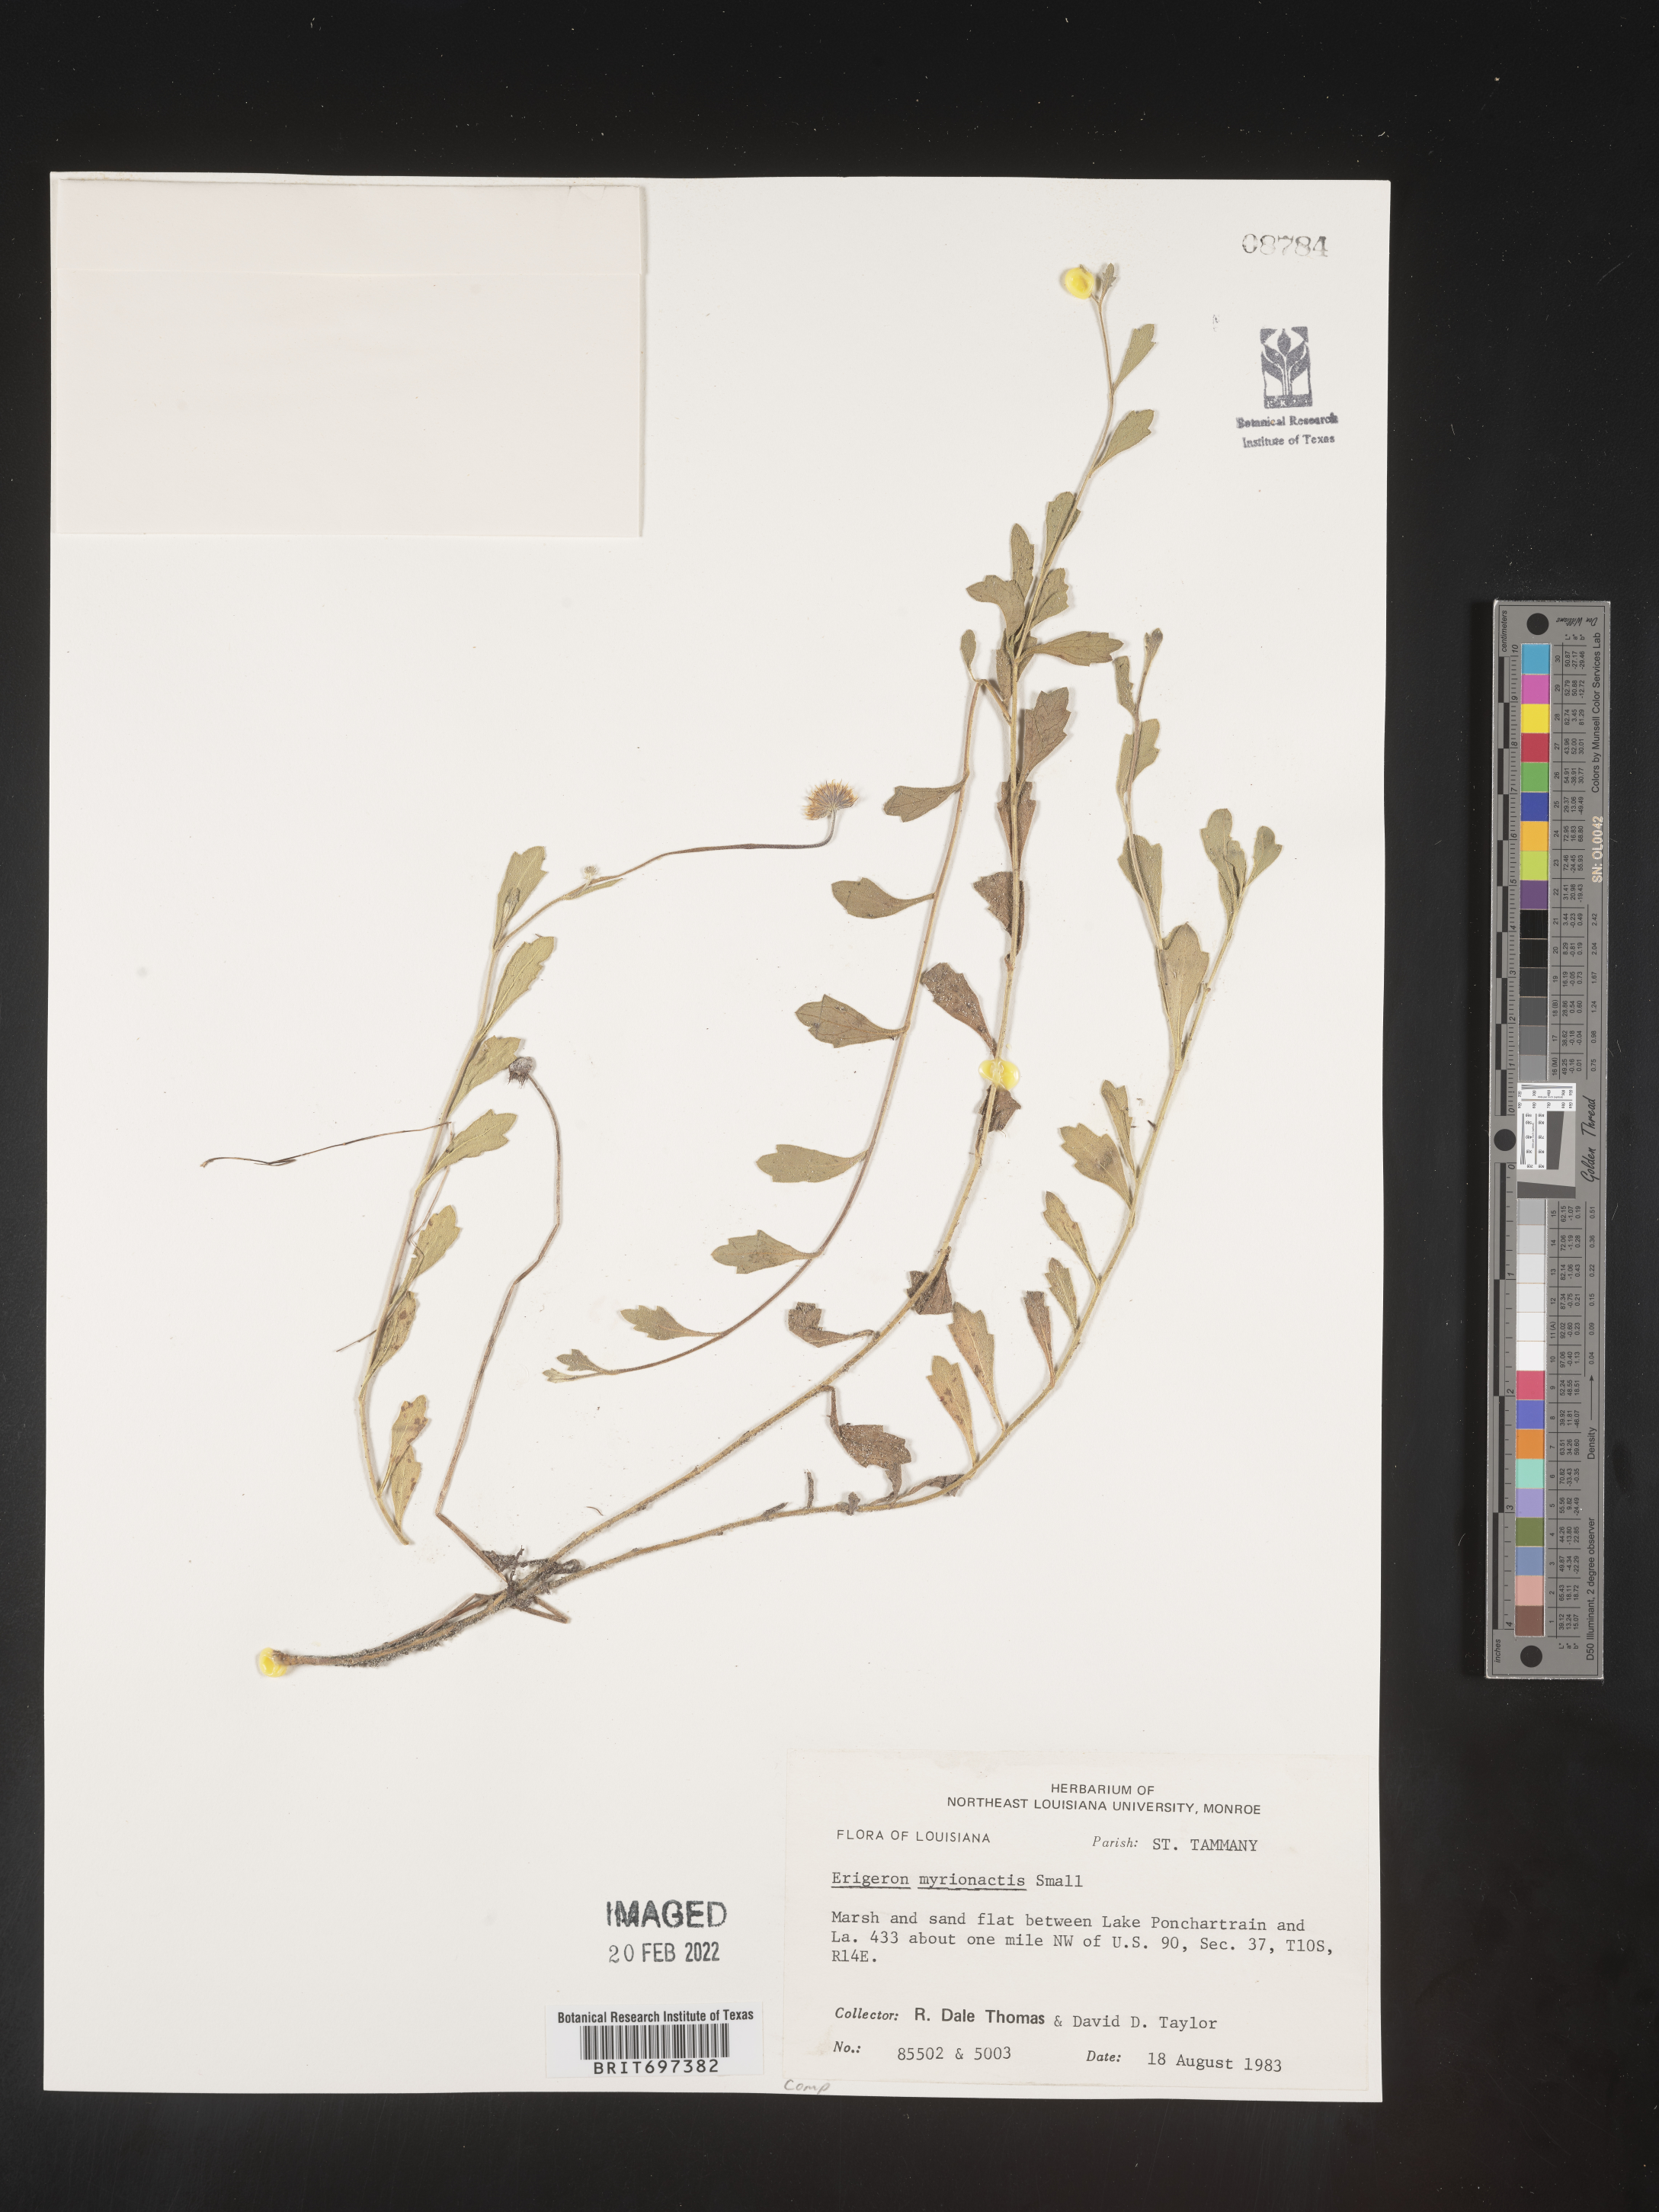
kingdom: Plantae
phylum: Tracheophyta
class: Magnoliopsida
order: Asterales
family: Asteraceae
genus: Erigeron
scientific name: Erigeron procumbens
